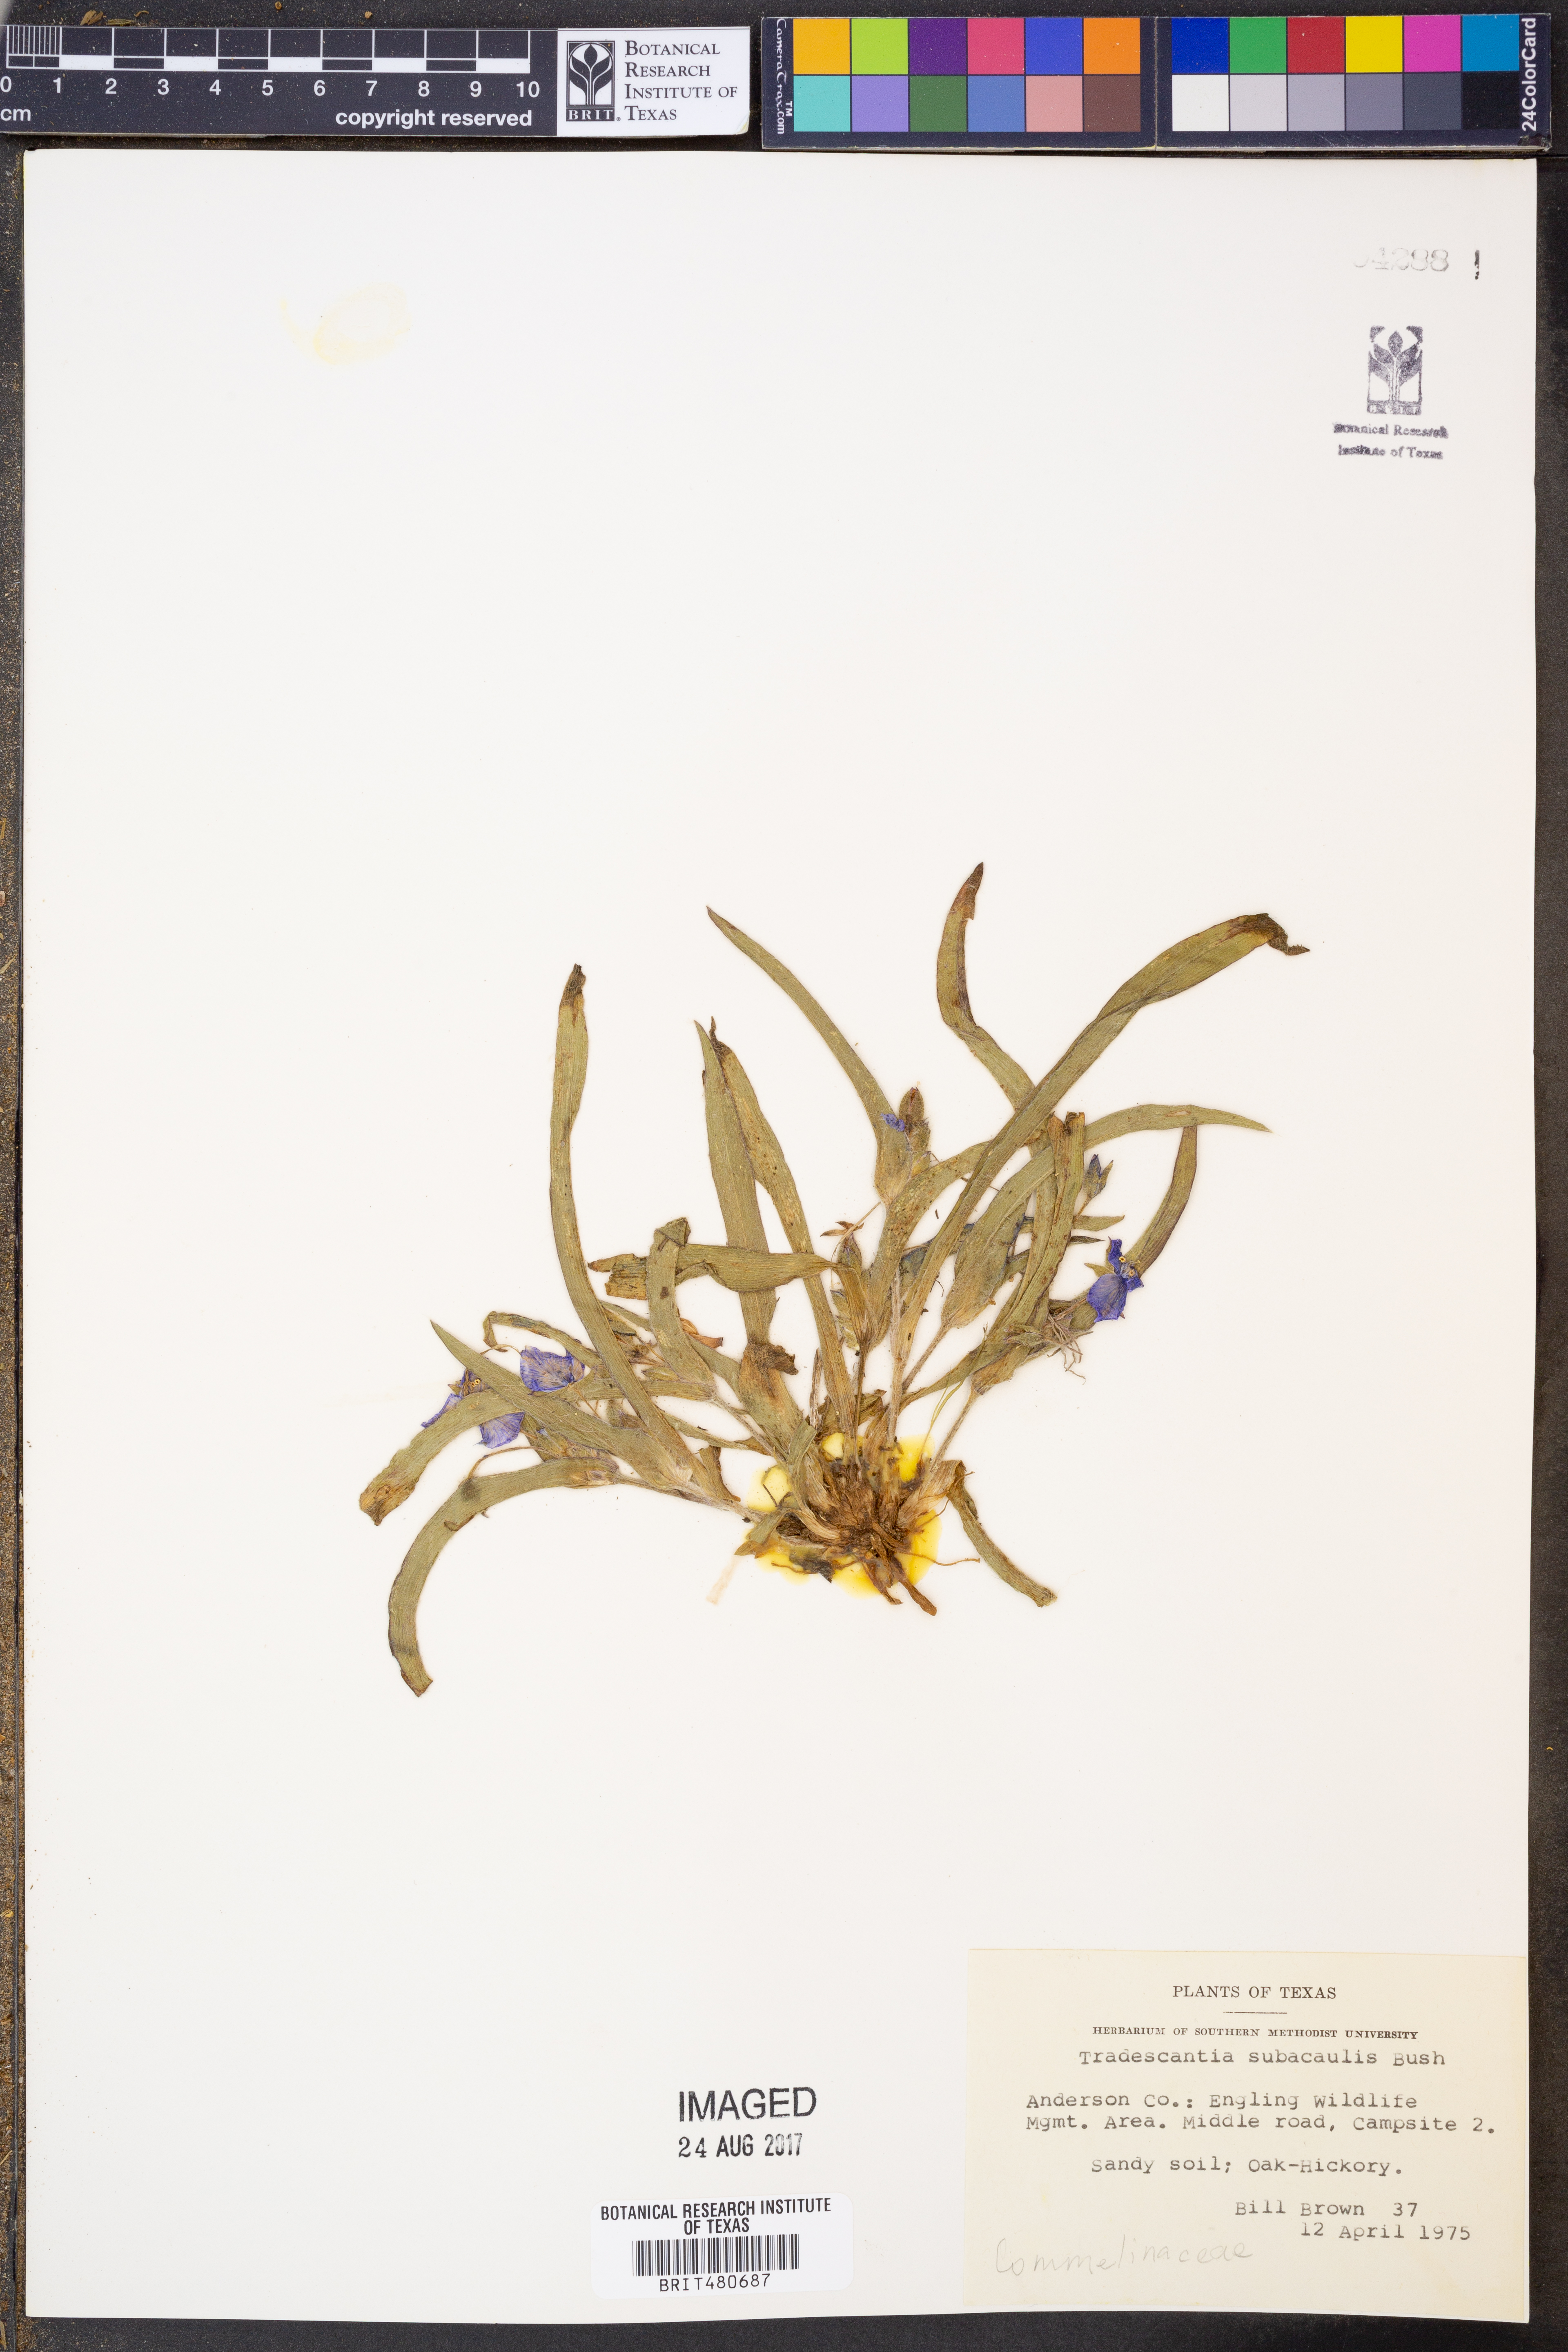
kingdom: Plantae
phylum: Tracheophyta
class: Liliopsida
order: Commelinales
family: Commelinaceae
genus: Tradescantia
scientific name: Tradescantia subacaulis
